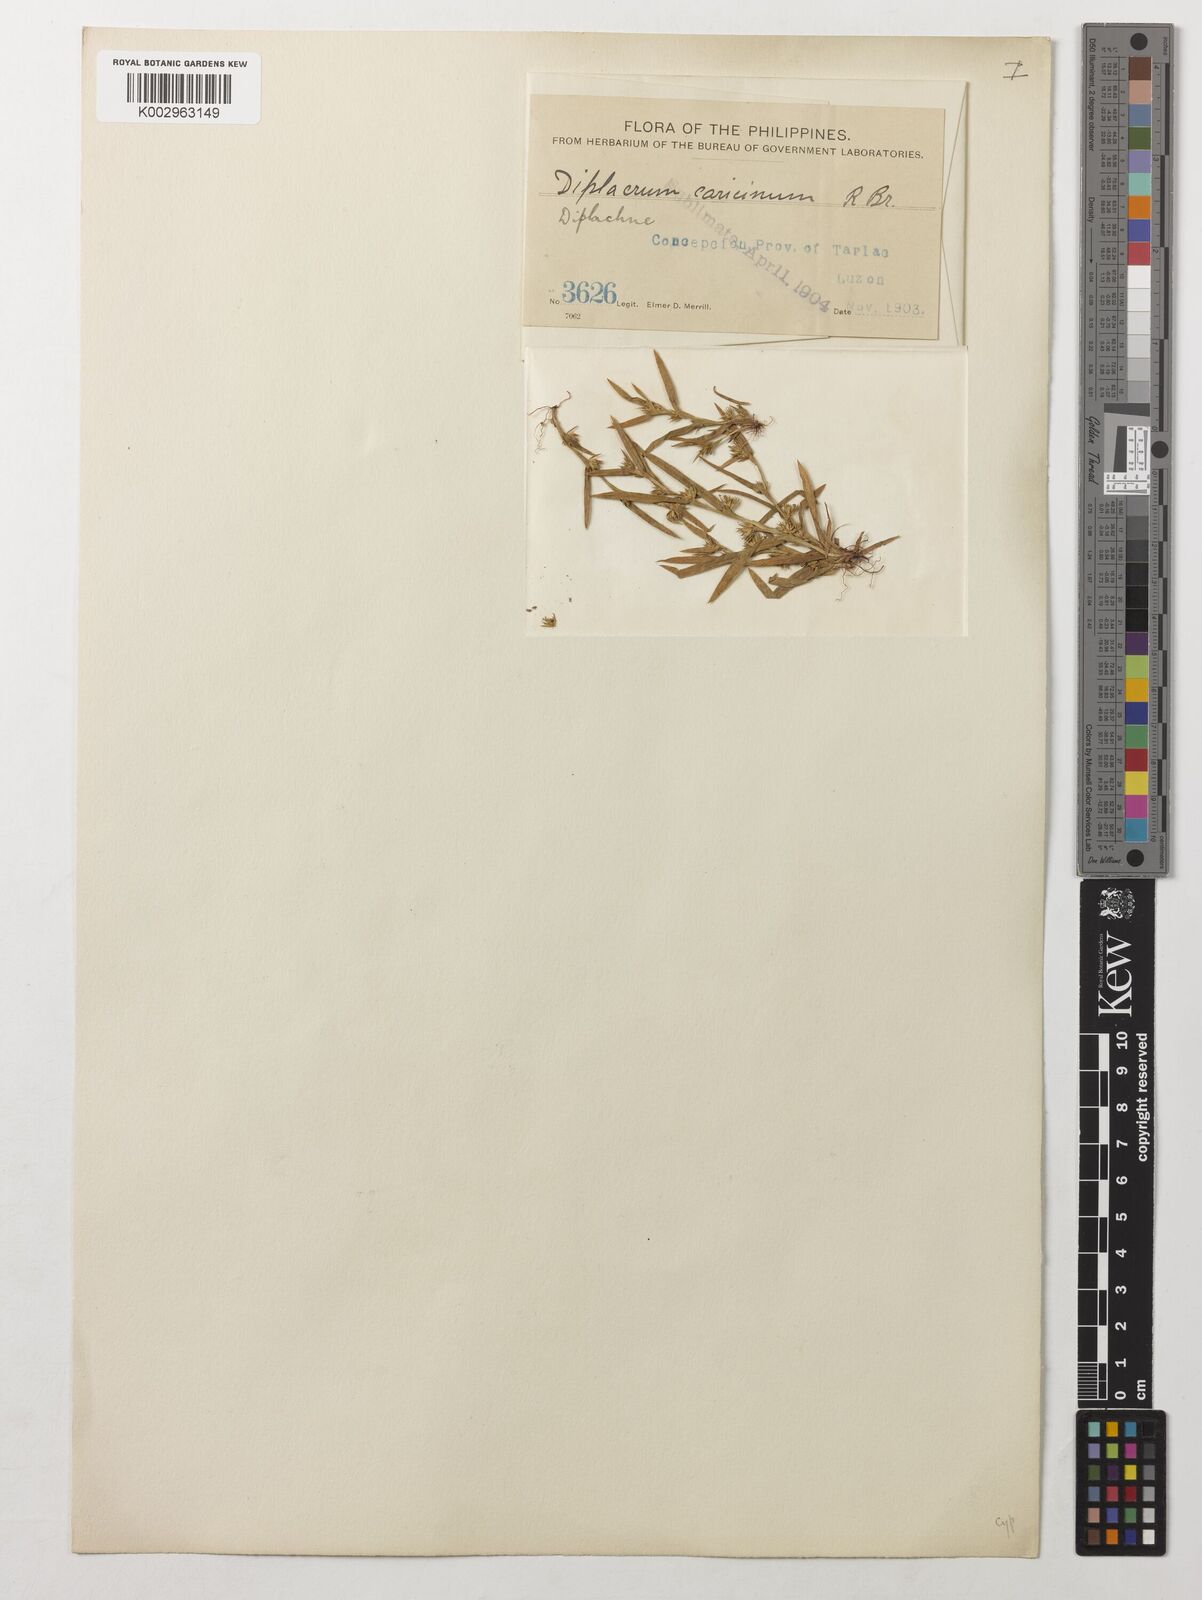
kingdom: Plantae
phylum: Tracheophyta
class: Liliopsida
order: Poales
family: Cyperaceae
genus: Diplacrum
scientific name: Diplacrum caricinum
